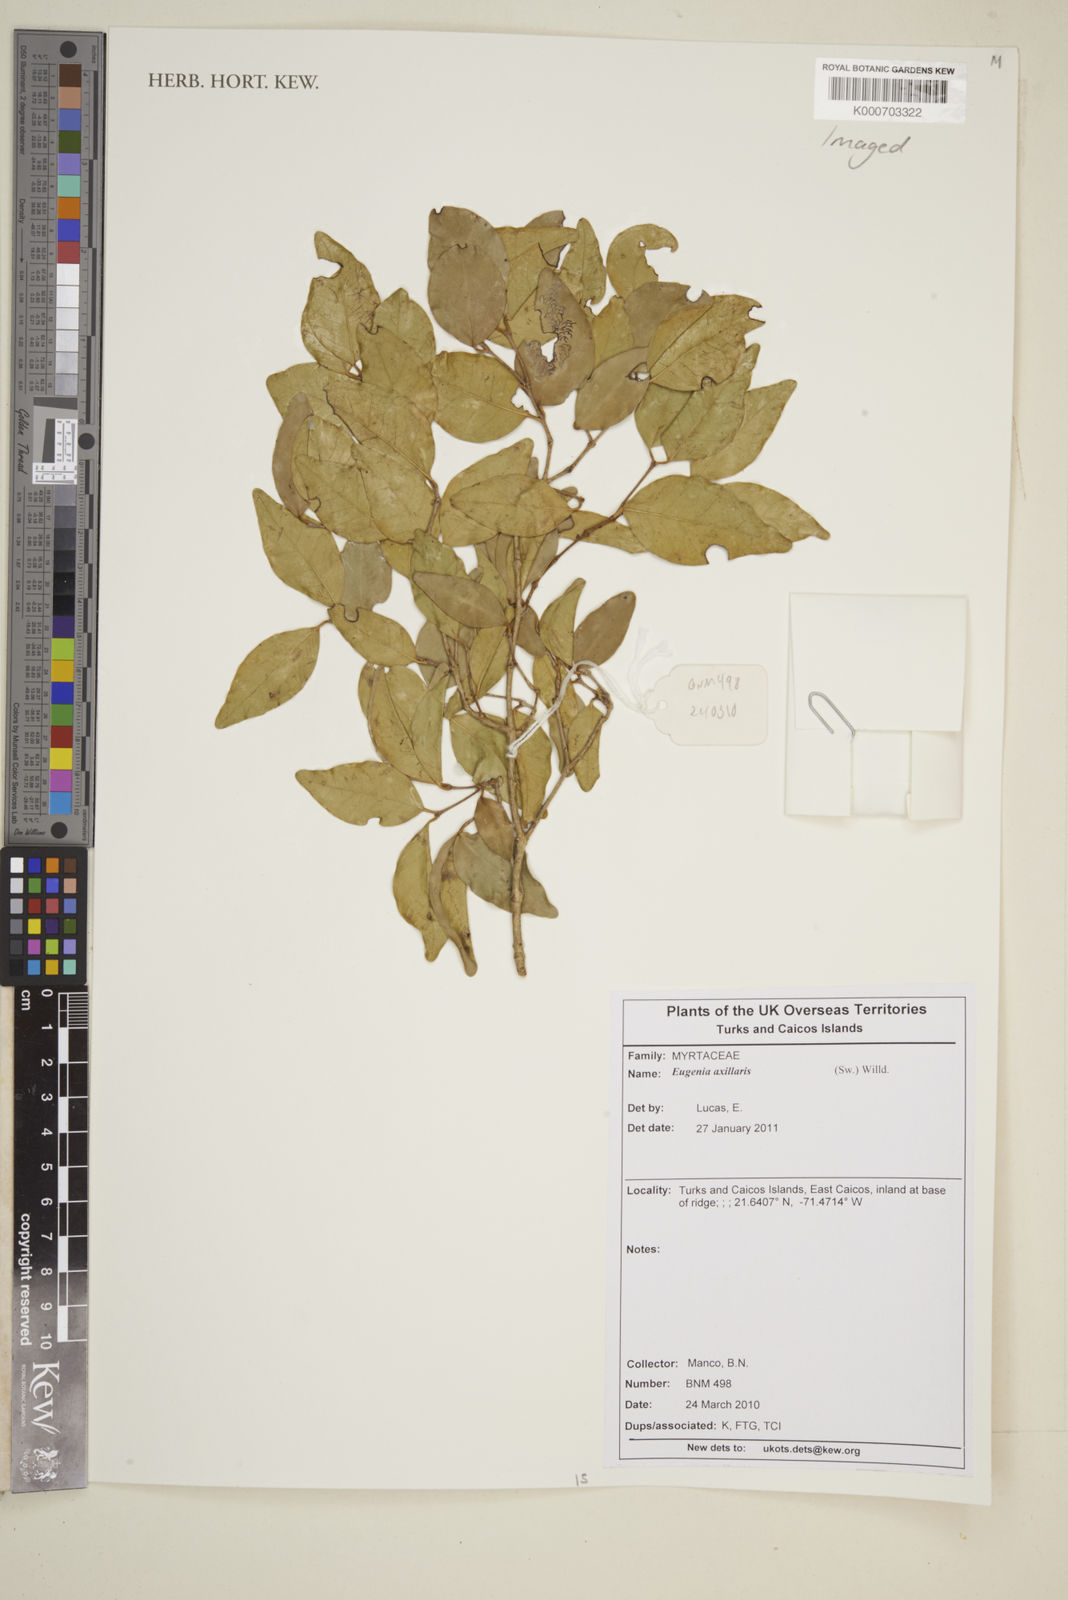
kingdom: Plantae
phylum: Tracheophyta
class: Magnoliopsida
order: Myrtales
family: Myrtaceae
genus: Eugenia
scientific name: Eugenia axillaris
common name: Choaky berry
